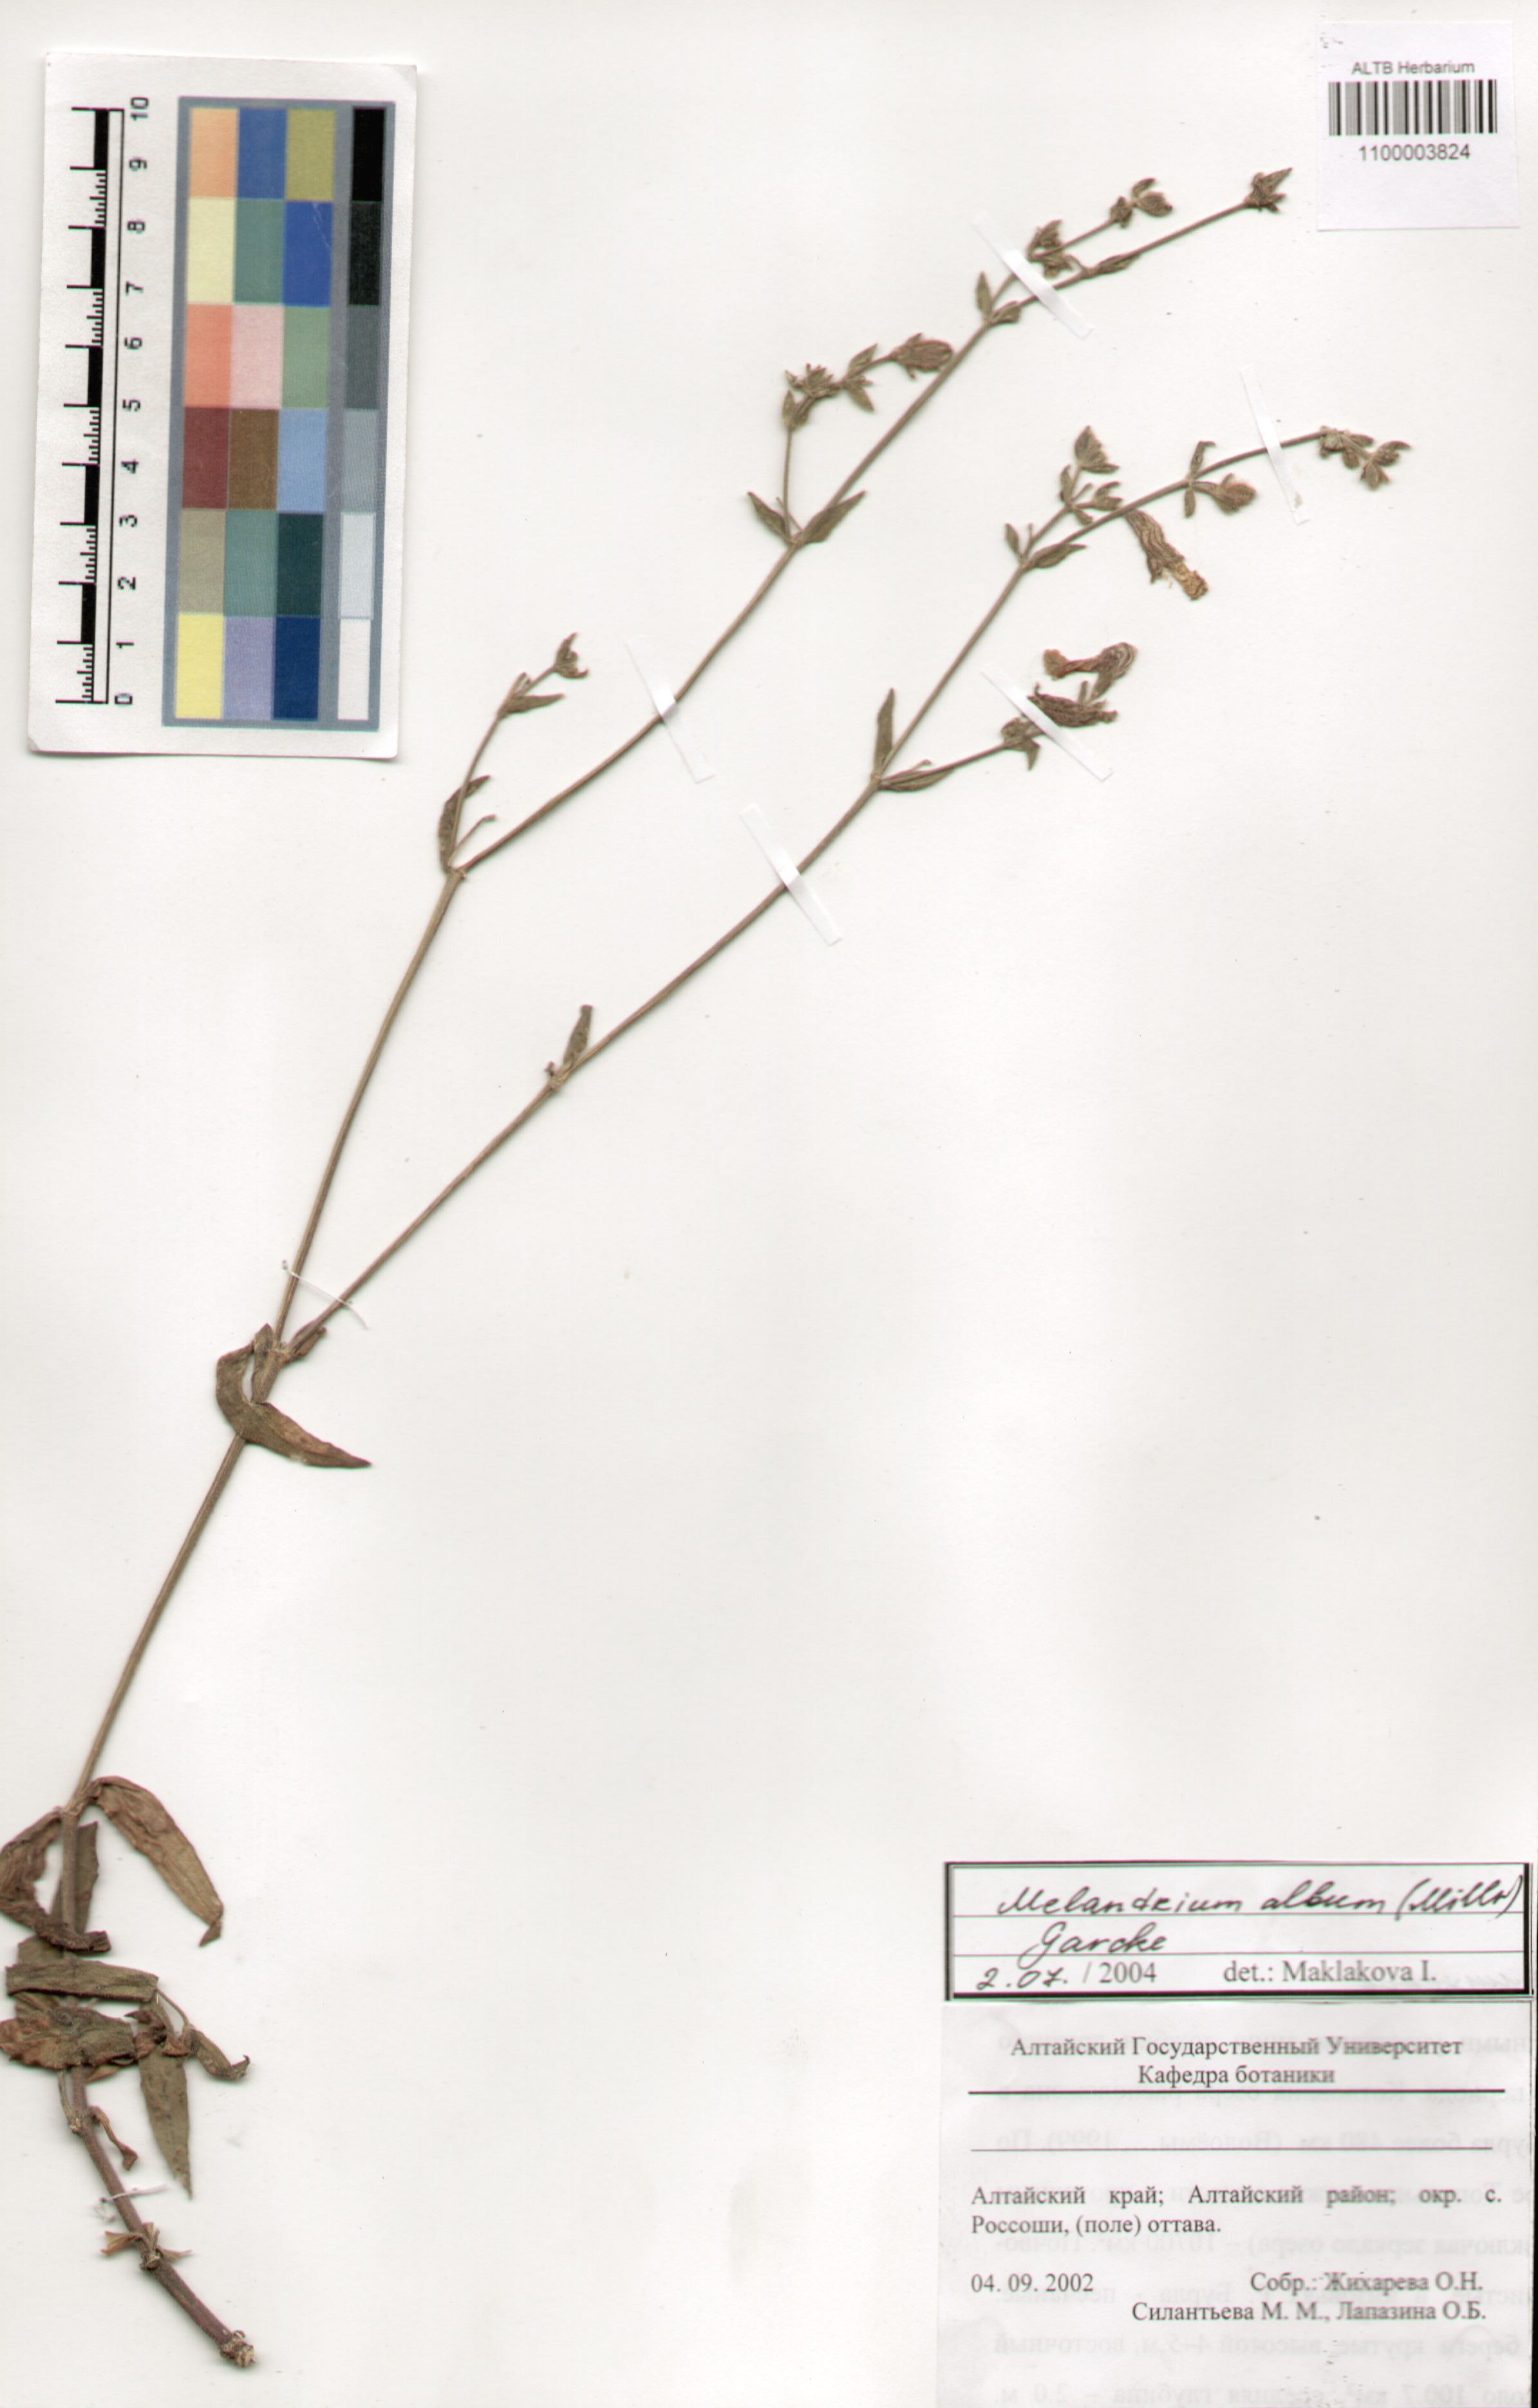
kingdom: Plantae
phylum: Tracheophyta
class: Magnoliopsida
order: Caryophyllales
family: Caryophyllaceae
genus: Silene
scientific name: Silene latifolia
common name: White campion
